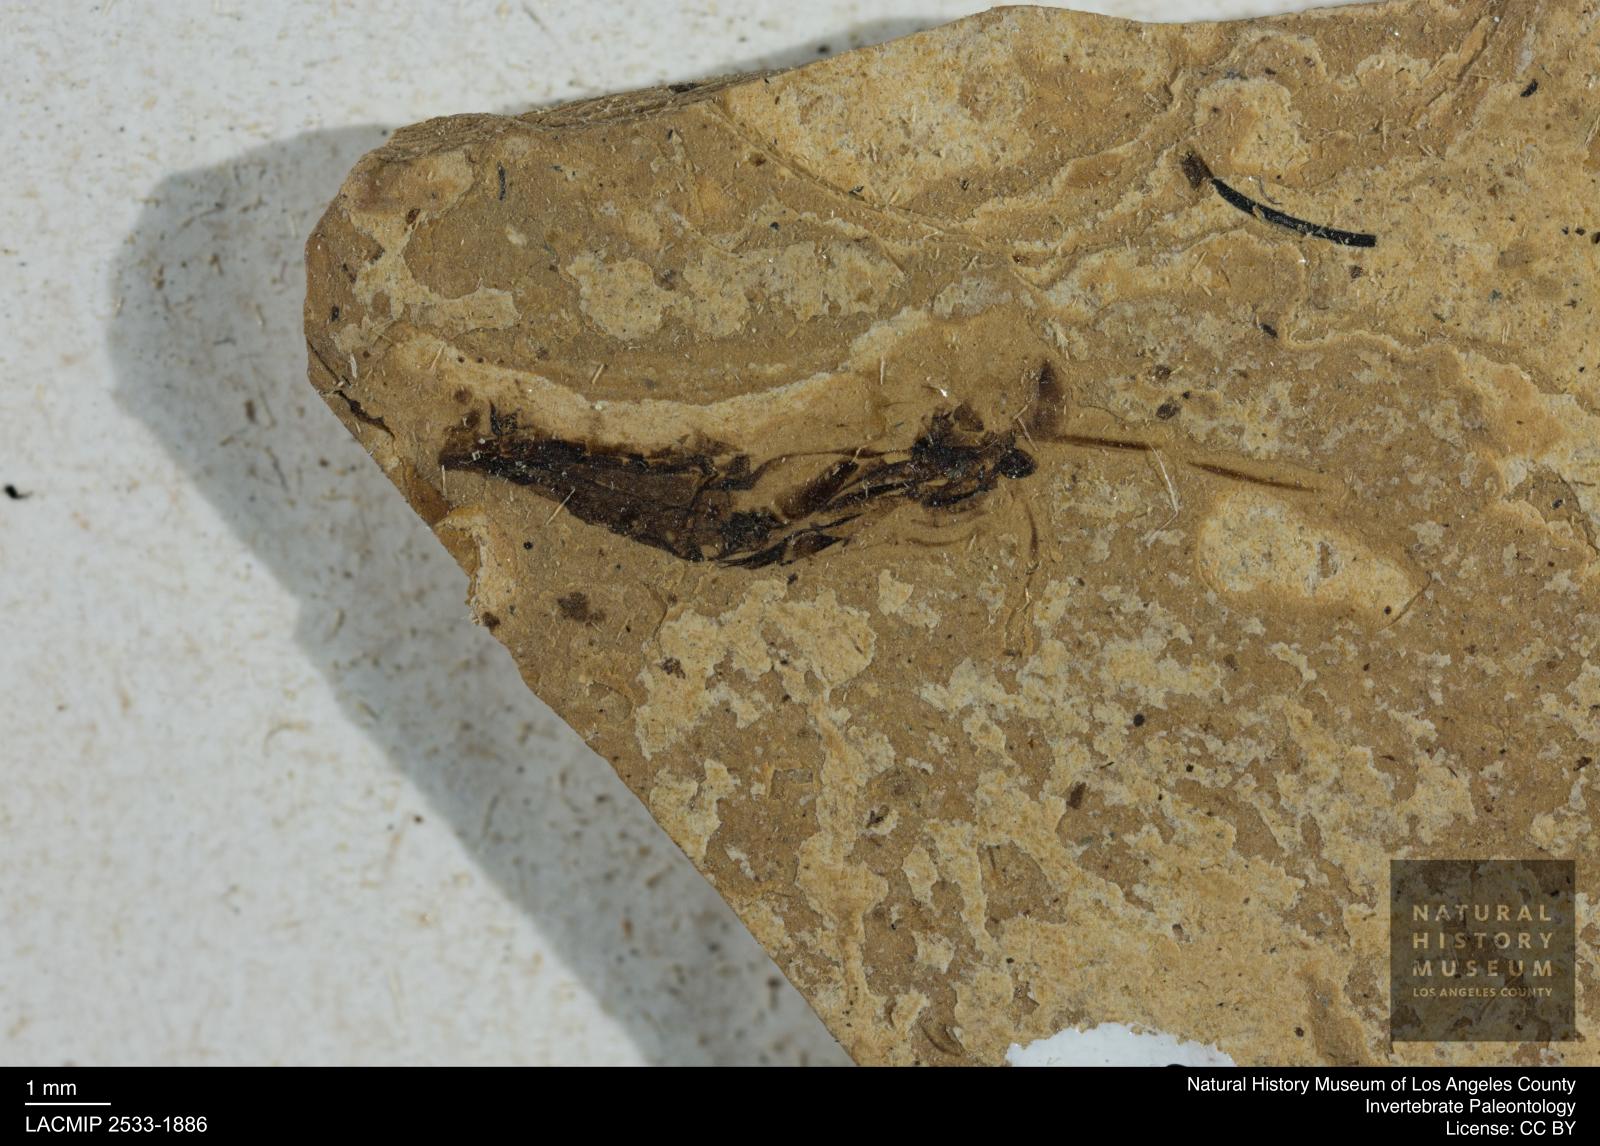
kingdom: Animalia
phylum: Arthropoda
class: Insecta
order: Hemiptera
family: Notonectidae
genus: Anisops
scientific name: Anisops Notonecta deichmuelleri
